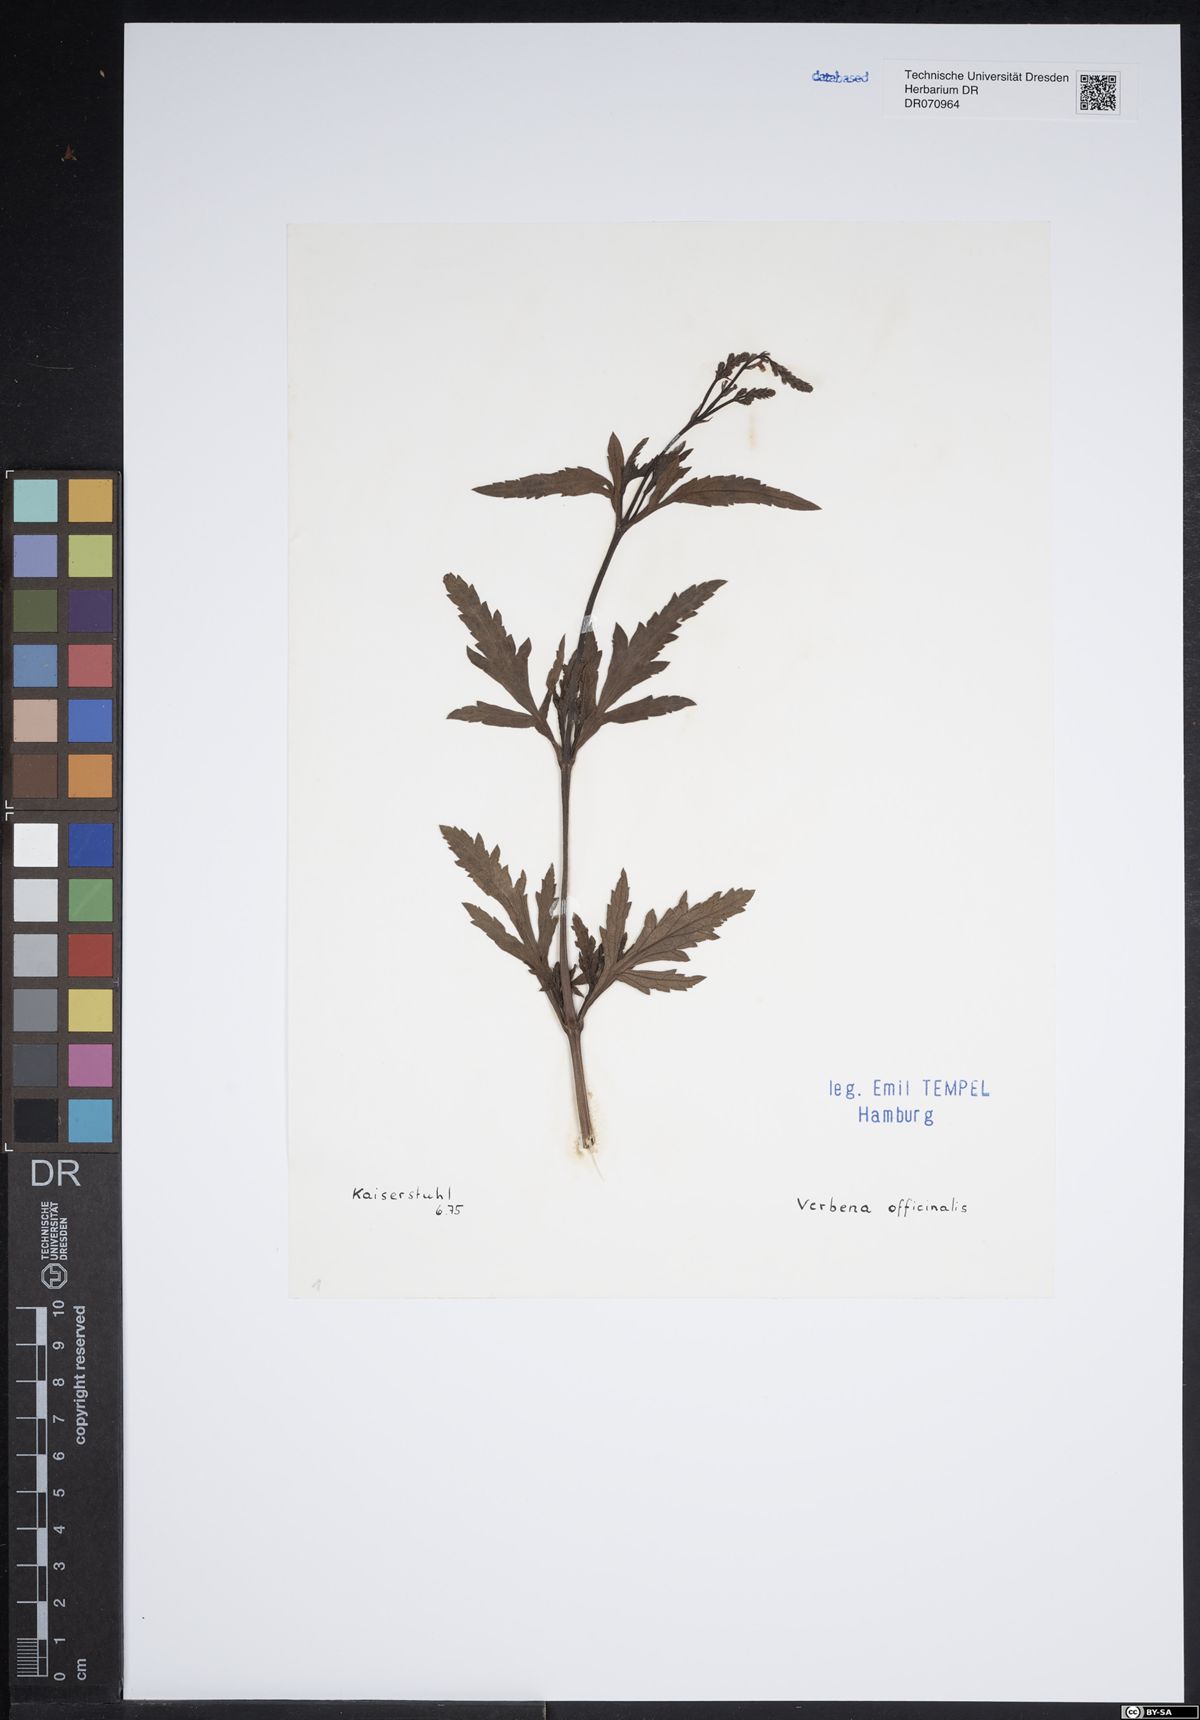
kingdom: Plantae
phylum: Tracheophyta
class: Magnoliopsida
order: Lamiales
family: Verbenaceae
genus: Verbena
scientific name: Verbena officinalis
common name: Vervain
